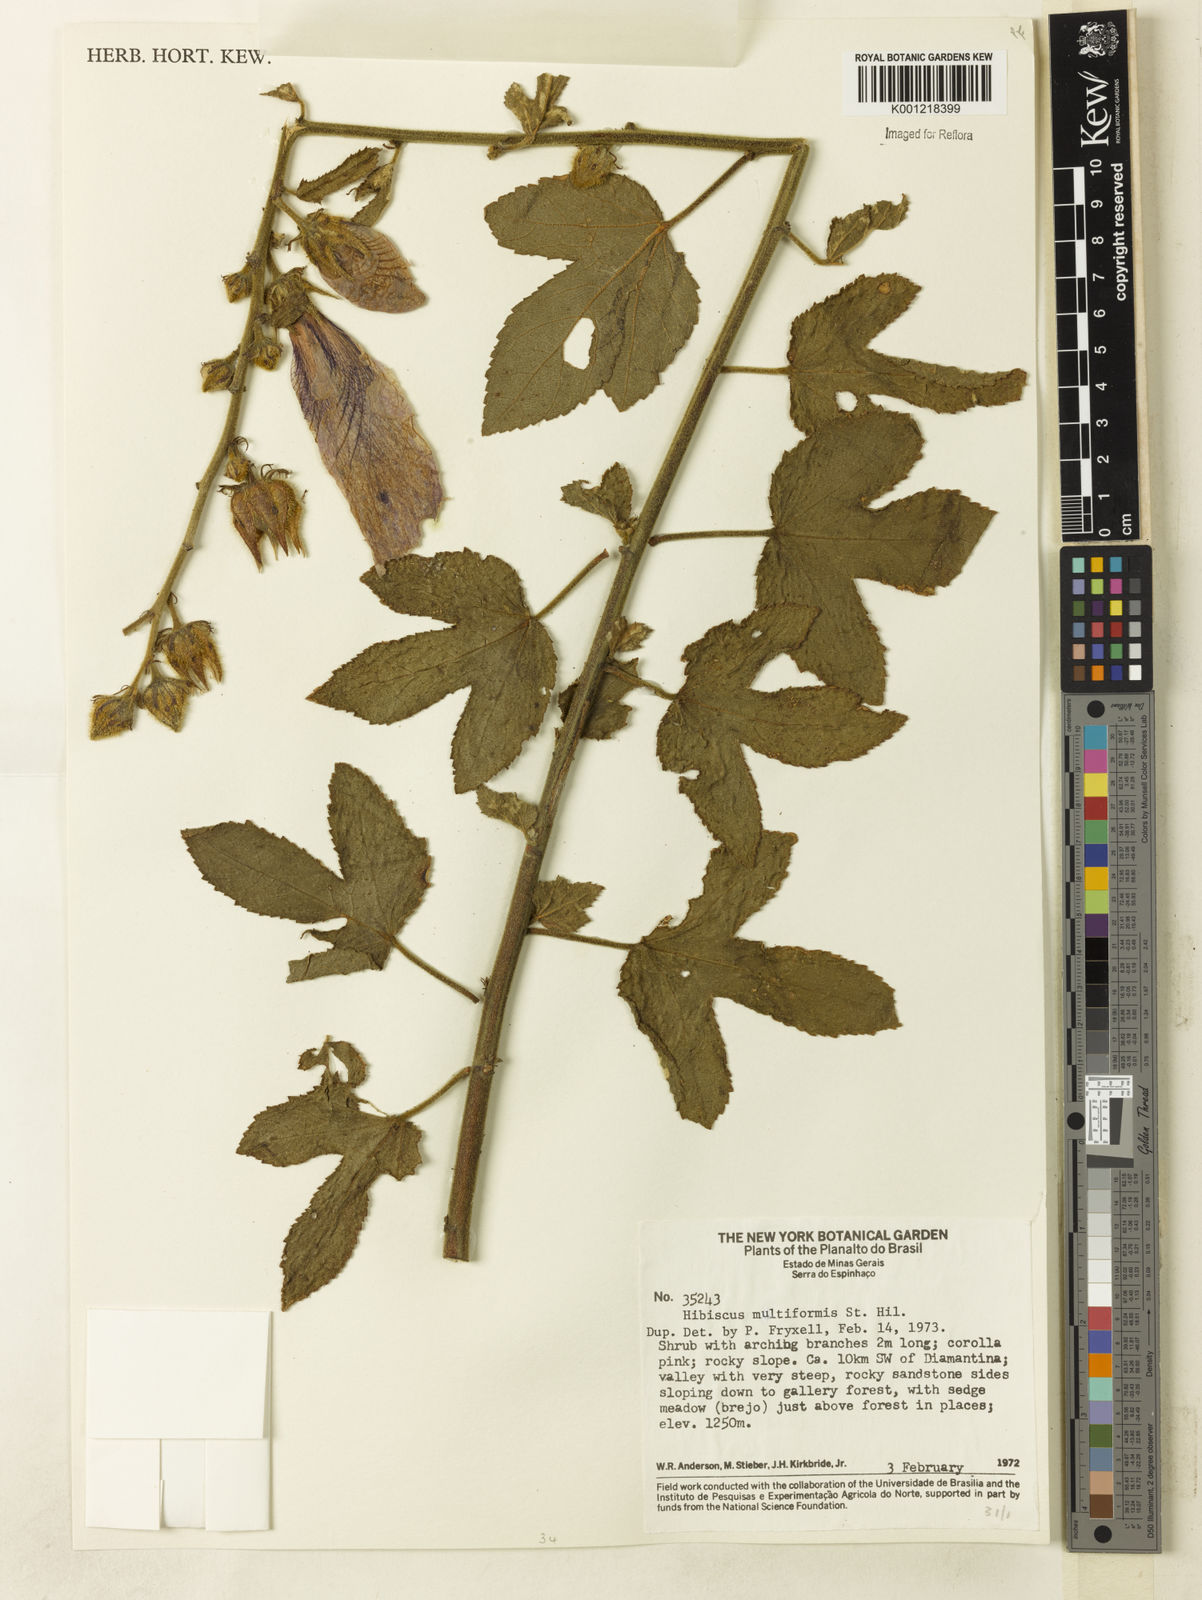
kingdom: Plantae
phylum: Tracheophyta
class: Magnoliopsida
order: Malvales
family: Malvaceae
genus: Hibiscus
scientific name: Hibiscus multiformis
